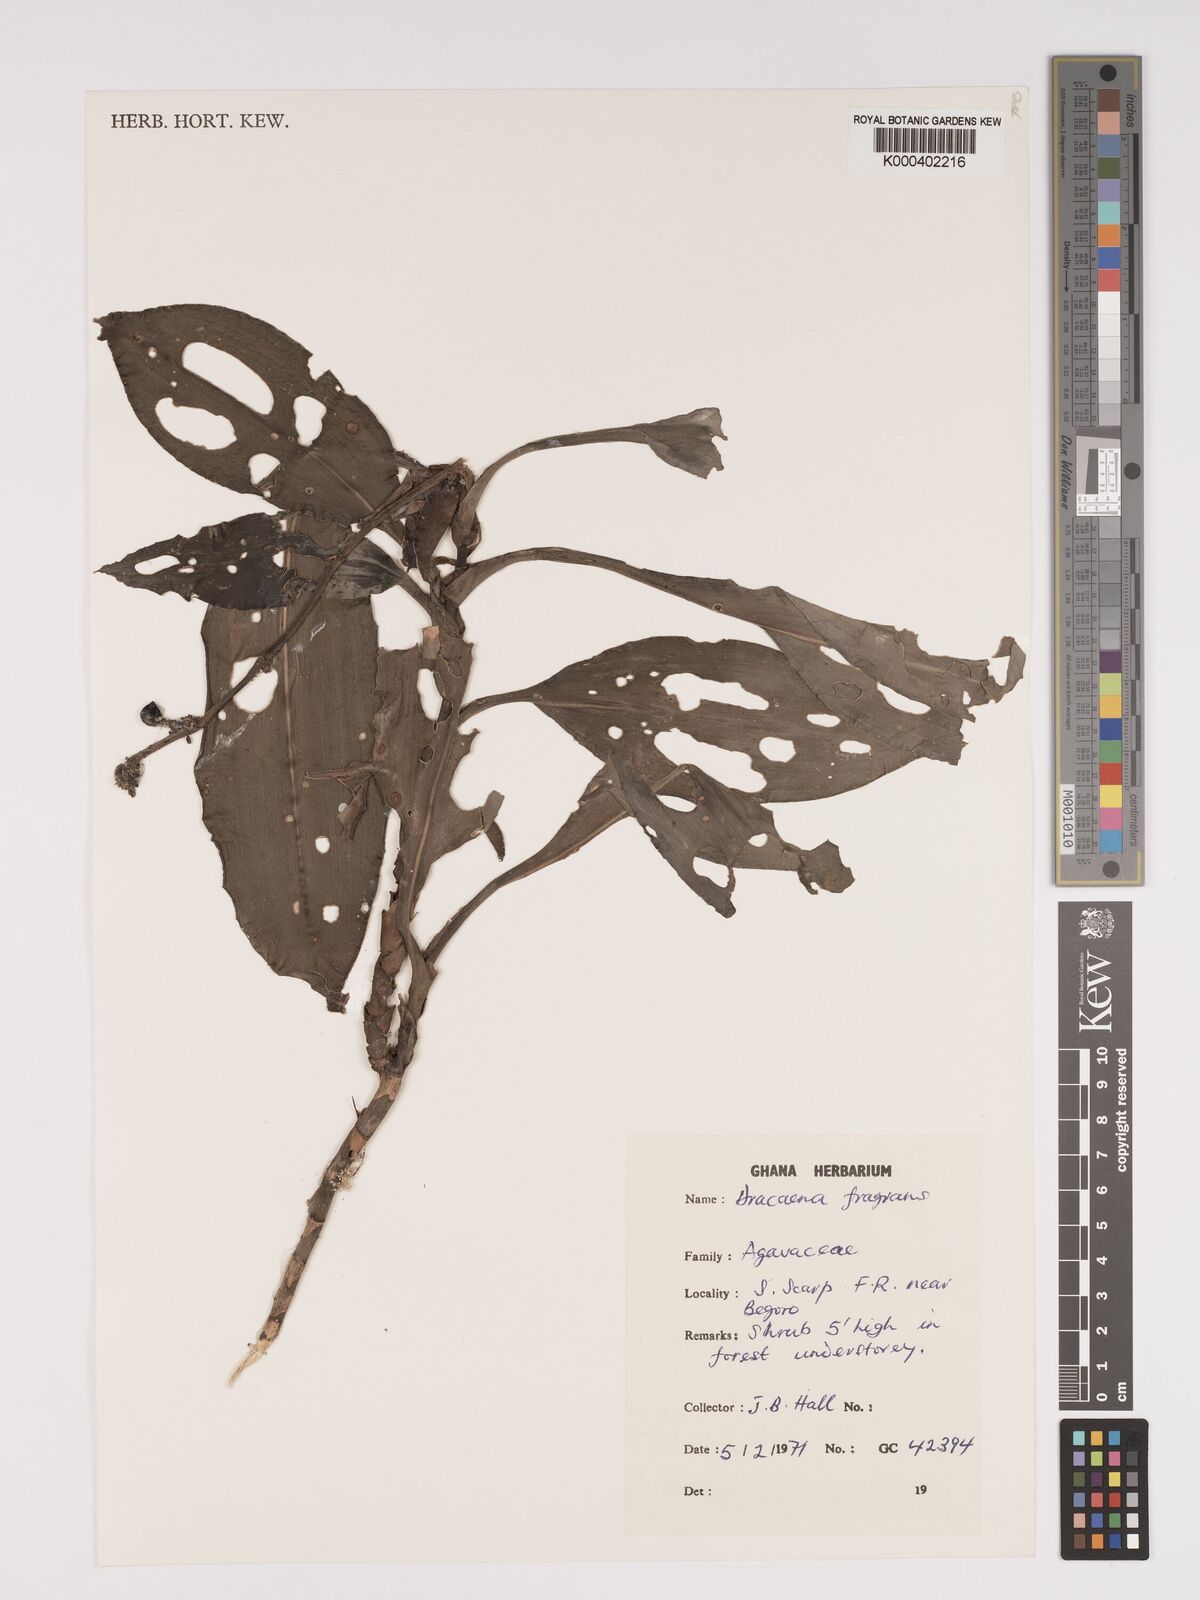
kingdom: Plantae
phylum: Tracheophyta
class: Liliopsida
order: Asparagales
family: Asparagaceae
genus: Dracaena
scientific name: Dracaena fragrans
